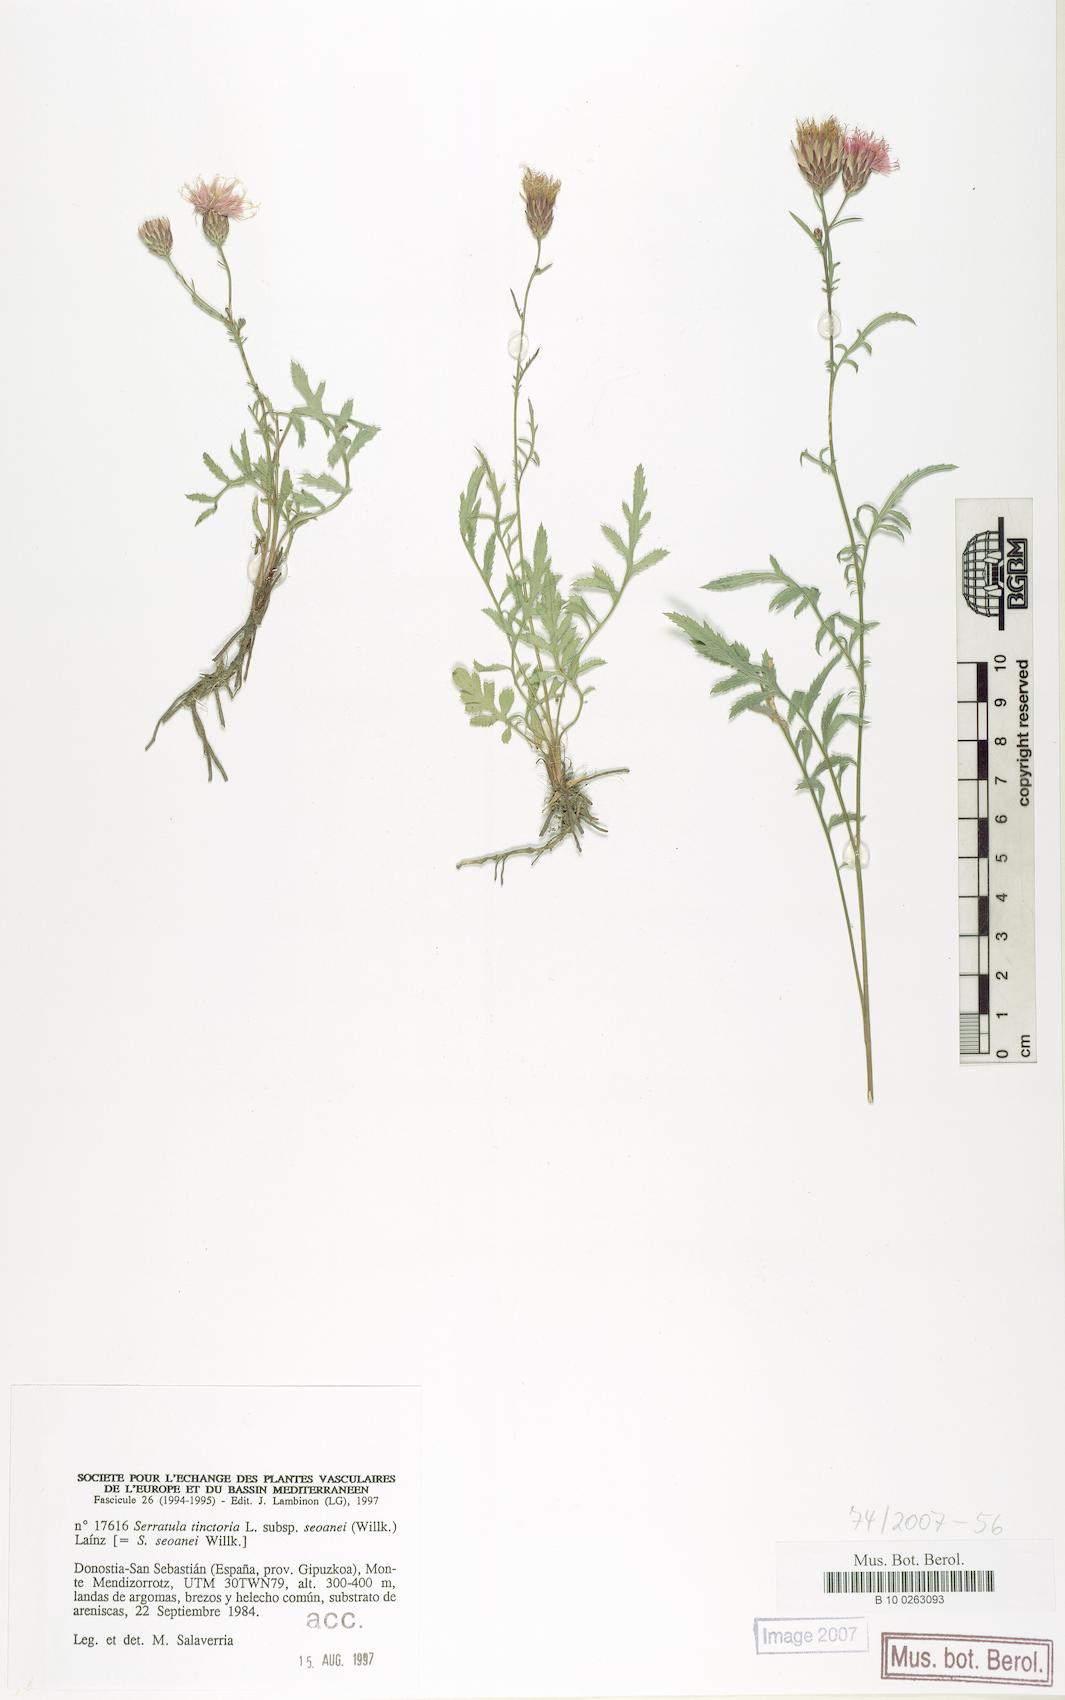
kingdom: Plantae
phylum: Tracheophyta
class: Magnoliopsida
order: Asterales
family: Asteraceae
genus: Serratula
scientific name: Serratula tinctoria
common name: Saw-wort
